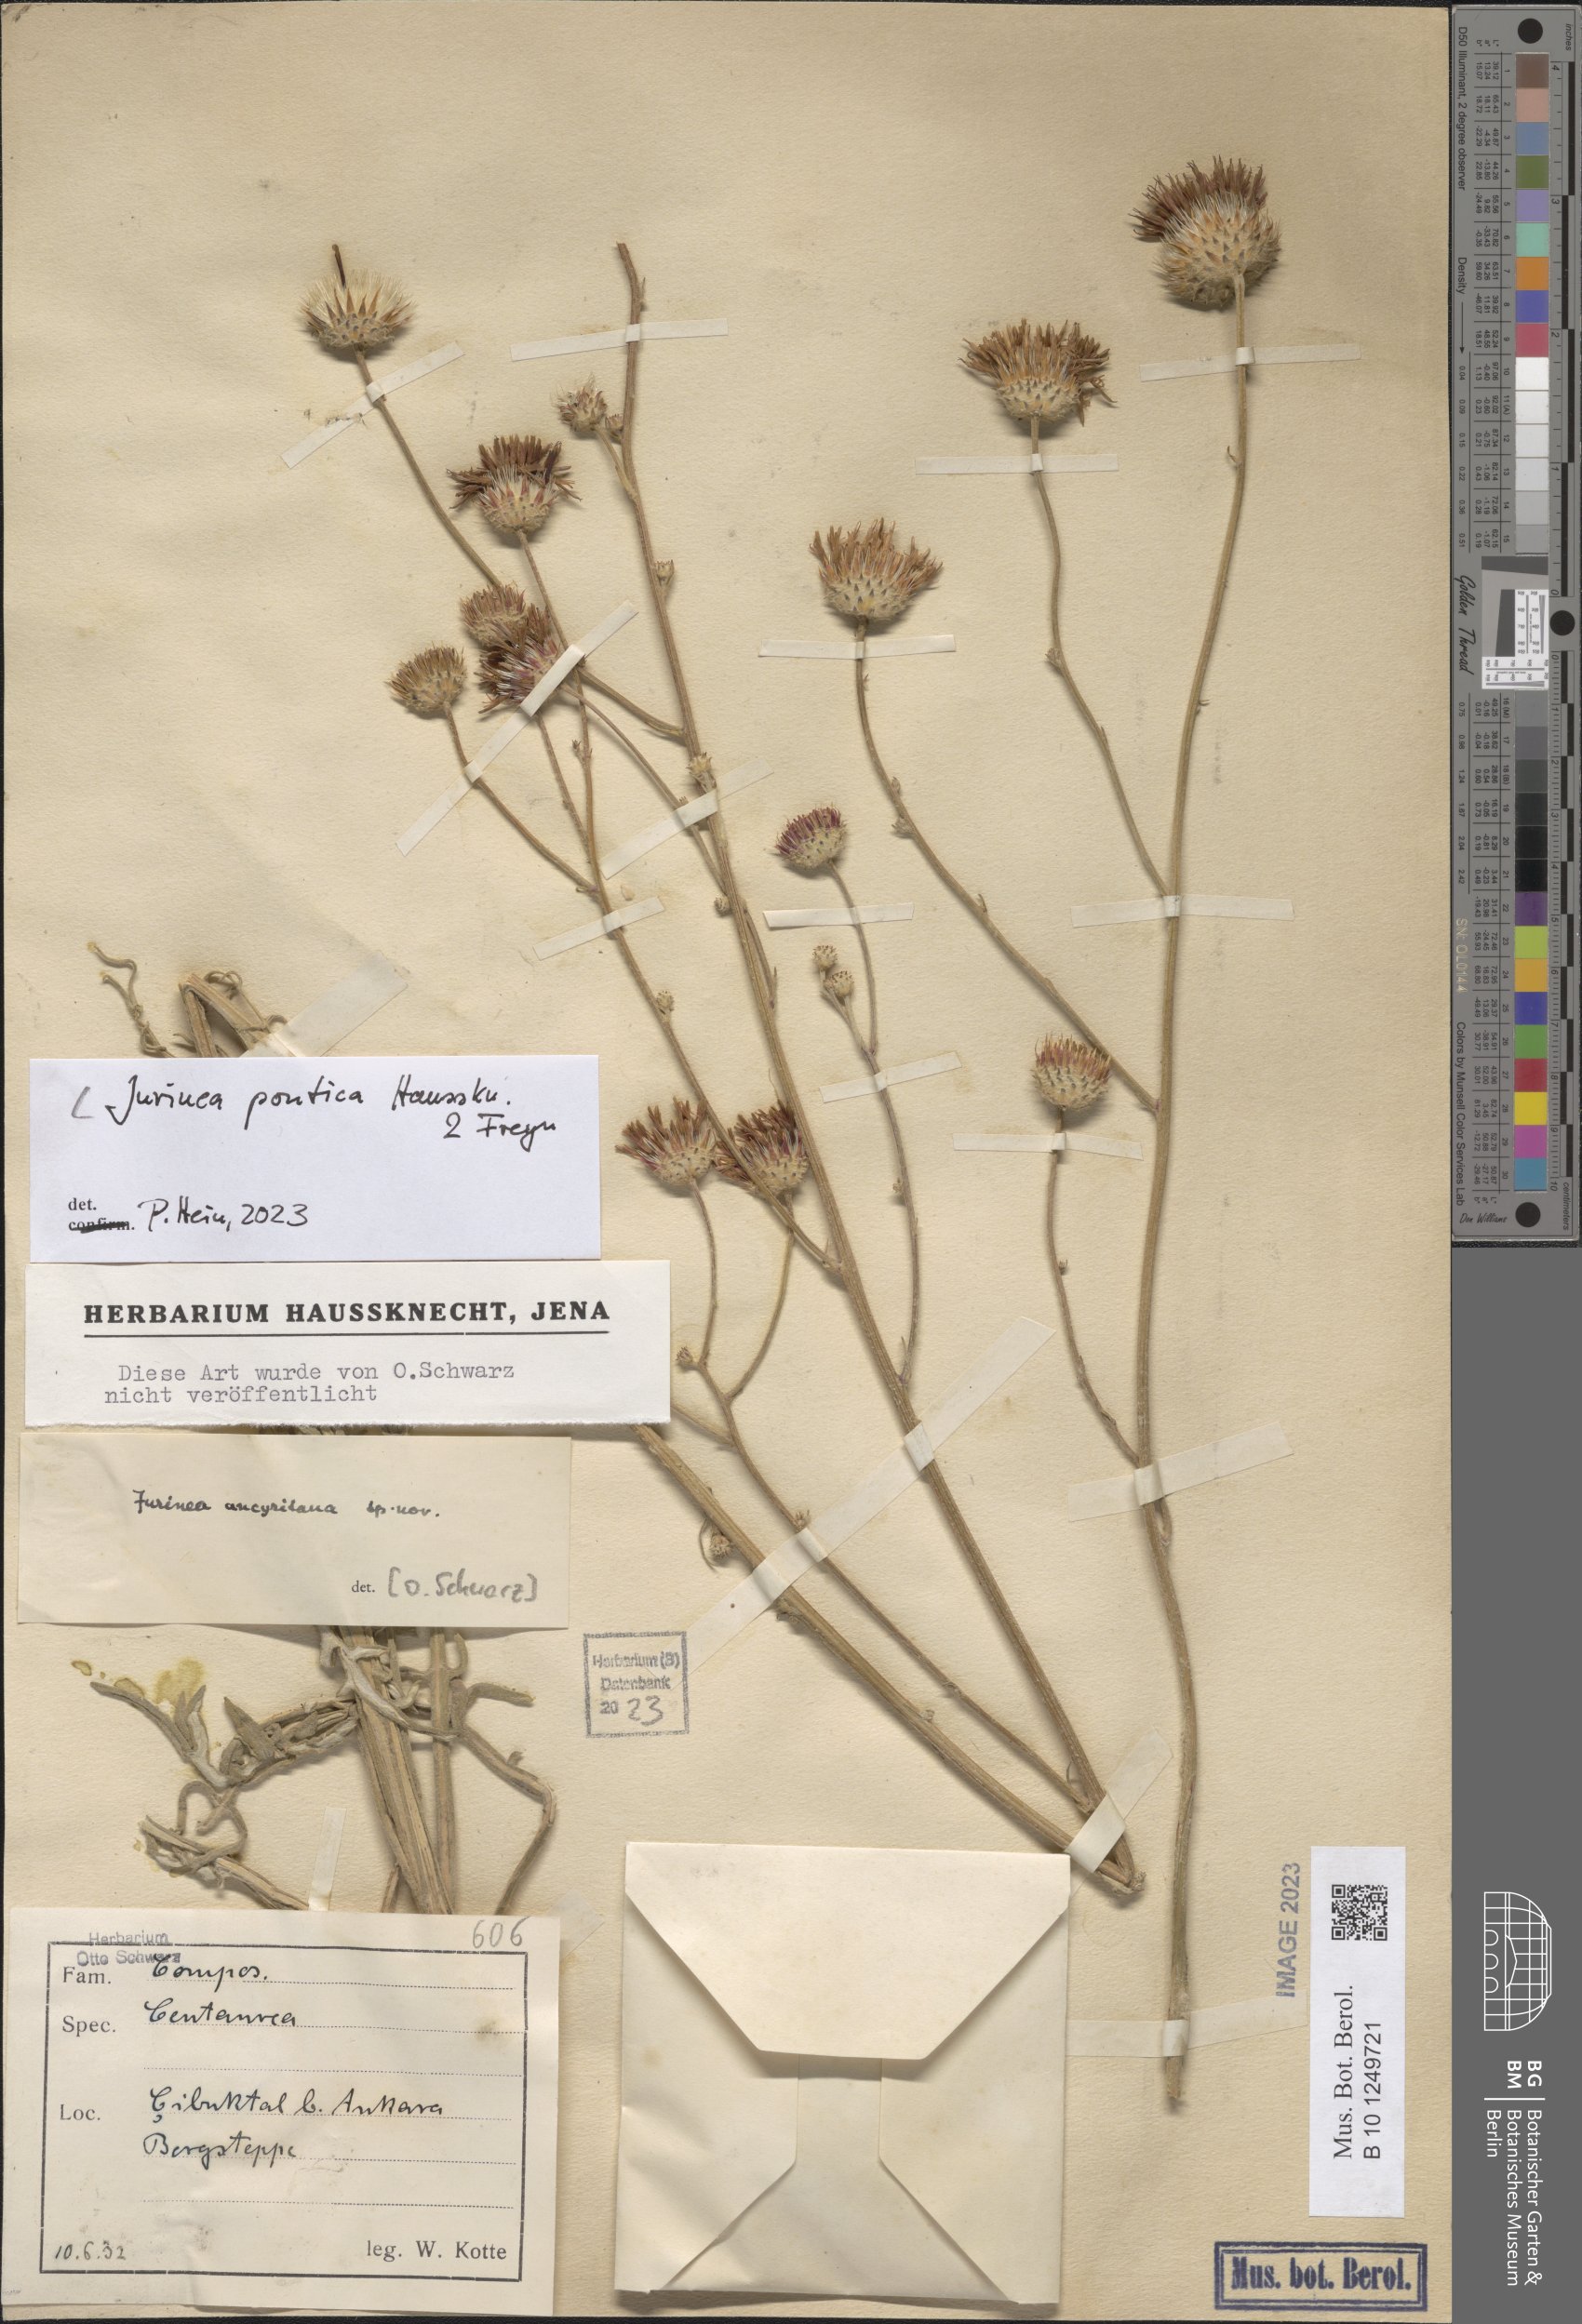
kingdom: Plantae
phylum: Tracheophyta
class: Magnoliopsida
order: Asterales
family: Asteraceae
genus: Jurinea
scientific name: Jurinea pontica
